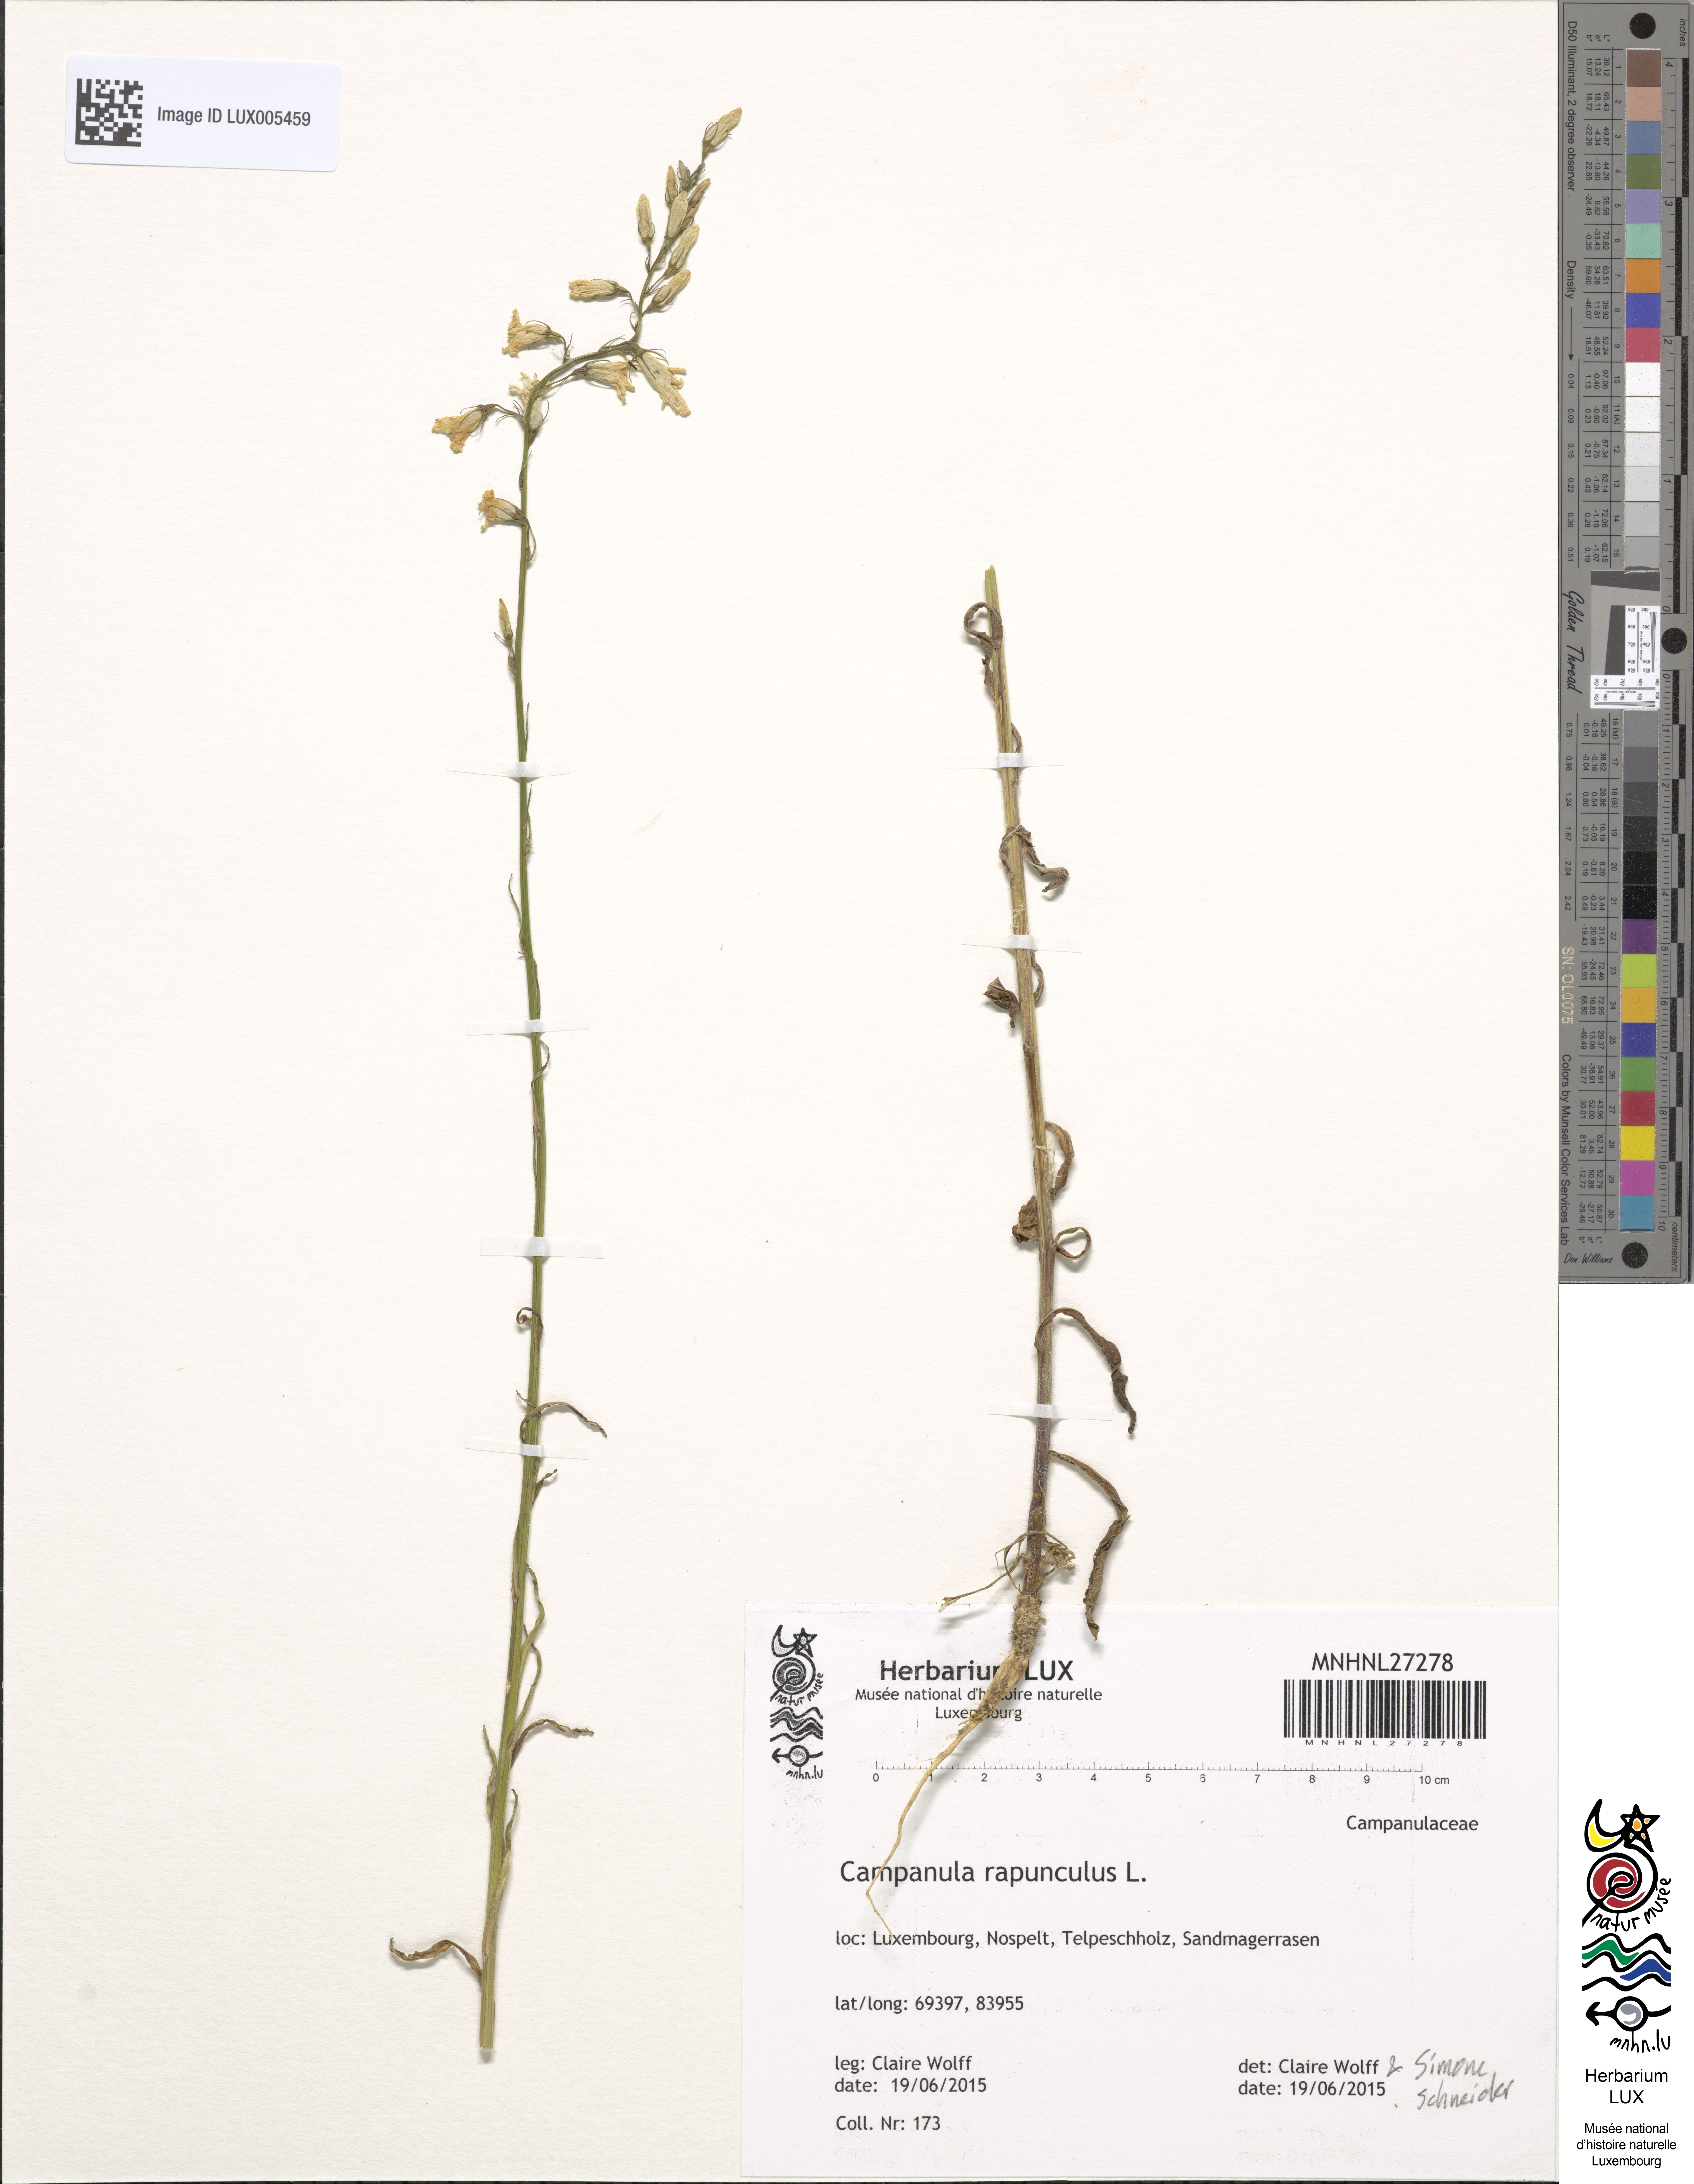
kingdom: Plantae
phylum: Tracheophyta
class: Magnoliopsida
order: Asterales
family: Campanulaceae
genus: Campanula
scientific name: Campanula rapunculus
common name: Rampion bellflower
